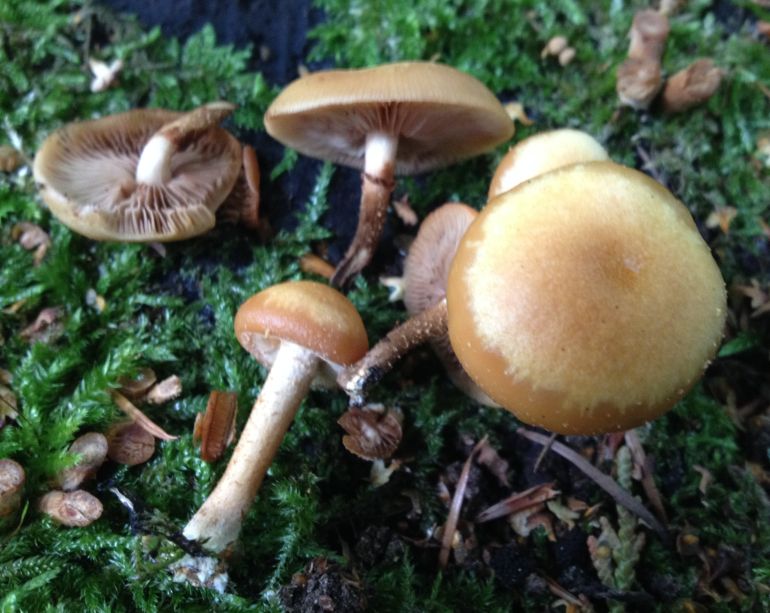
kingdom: Fungi
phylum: Basidiomycota
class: Agaricomycetes
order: Agaricales
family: Strophariaceae
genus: Kuehneromyces
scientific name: Kuehneromyces mutabilis
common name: foranderlig skælhat
